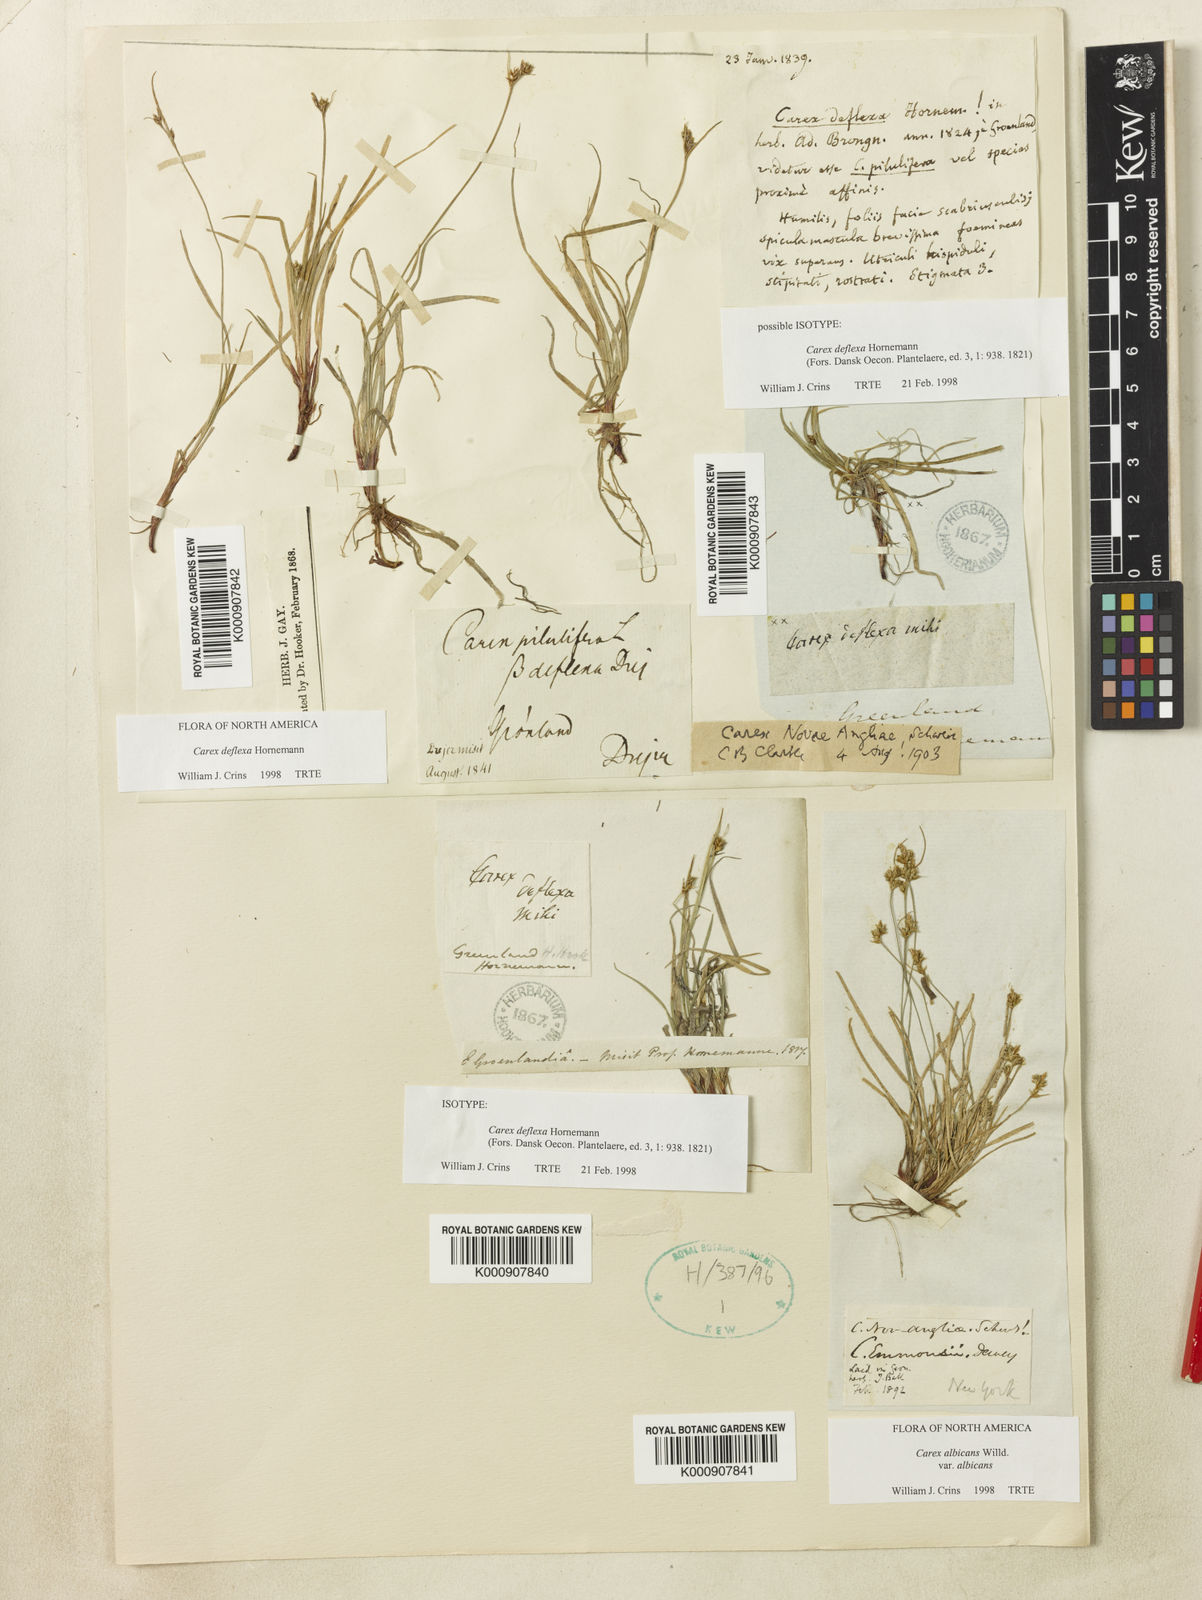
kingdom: Plantae
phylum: Tracheophyta
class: Liliopsida
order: Poales
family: Cyperaceae
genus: Carex
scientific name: Carex deflexa
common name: Bent northern sedge
